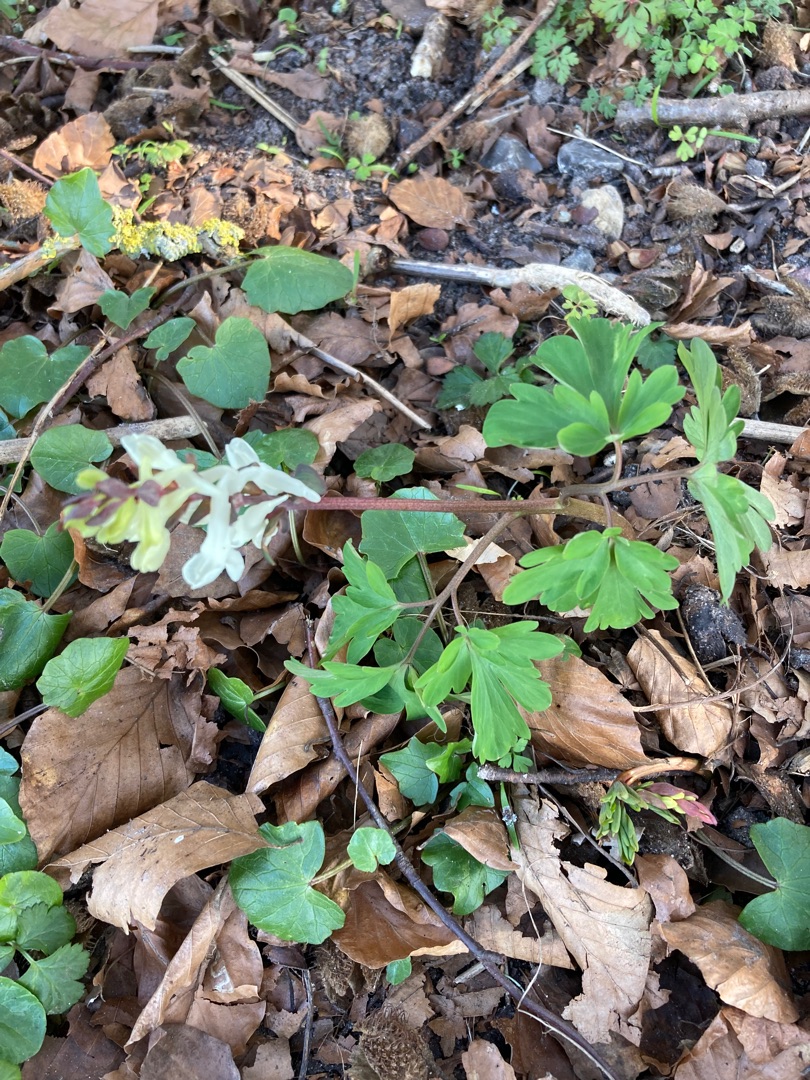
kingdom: Plantae
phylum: Tracheophyta
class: Magnoliopsida
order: Ranunculales
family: Papaveraceae
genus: Corydalis
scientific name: Corydalis cava
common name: Hulrodet lærkespore
